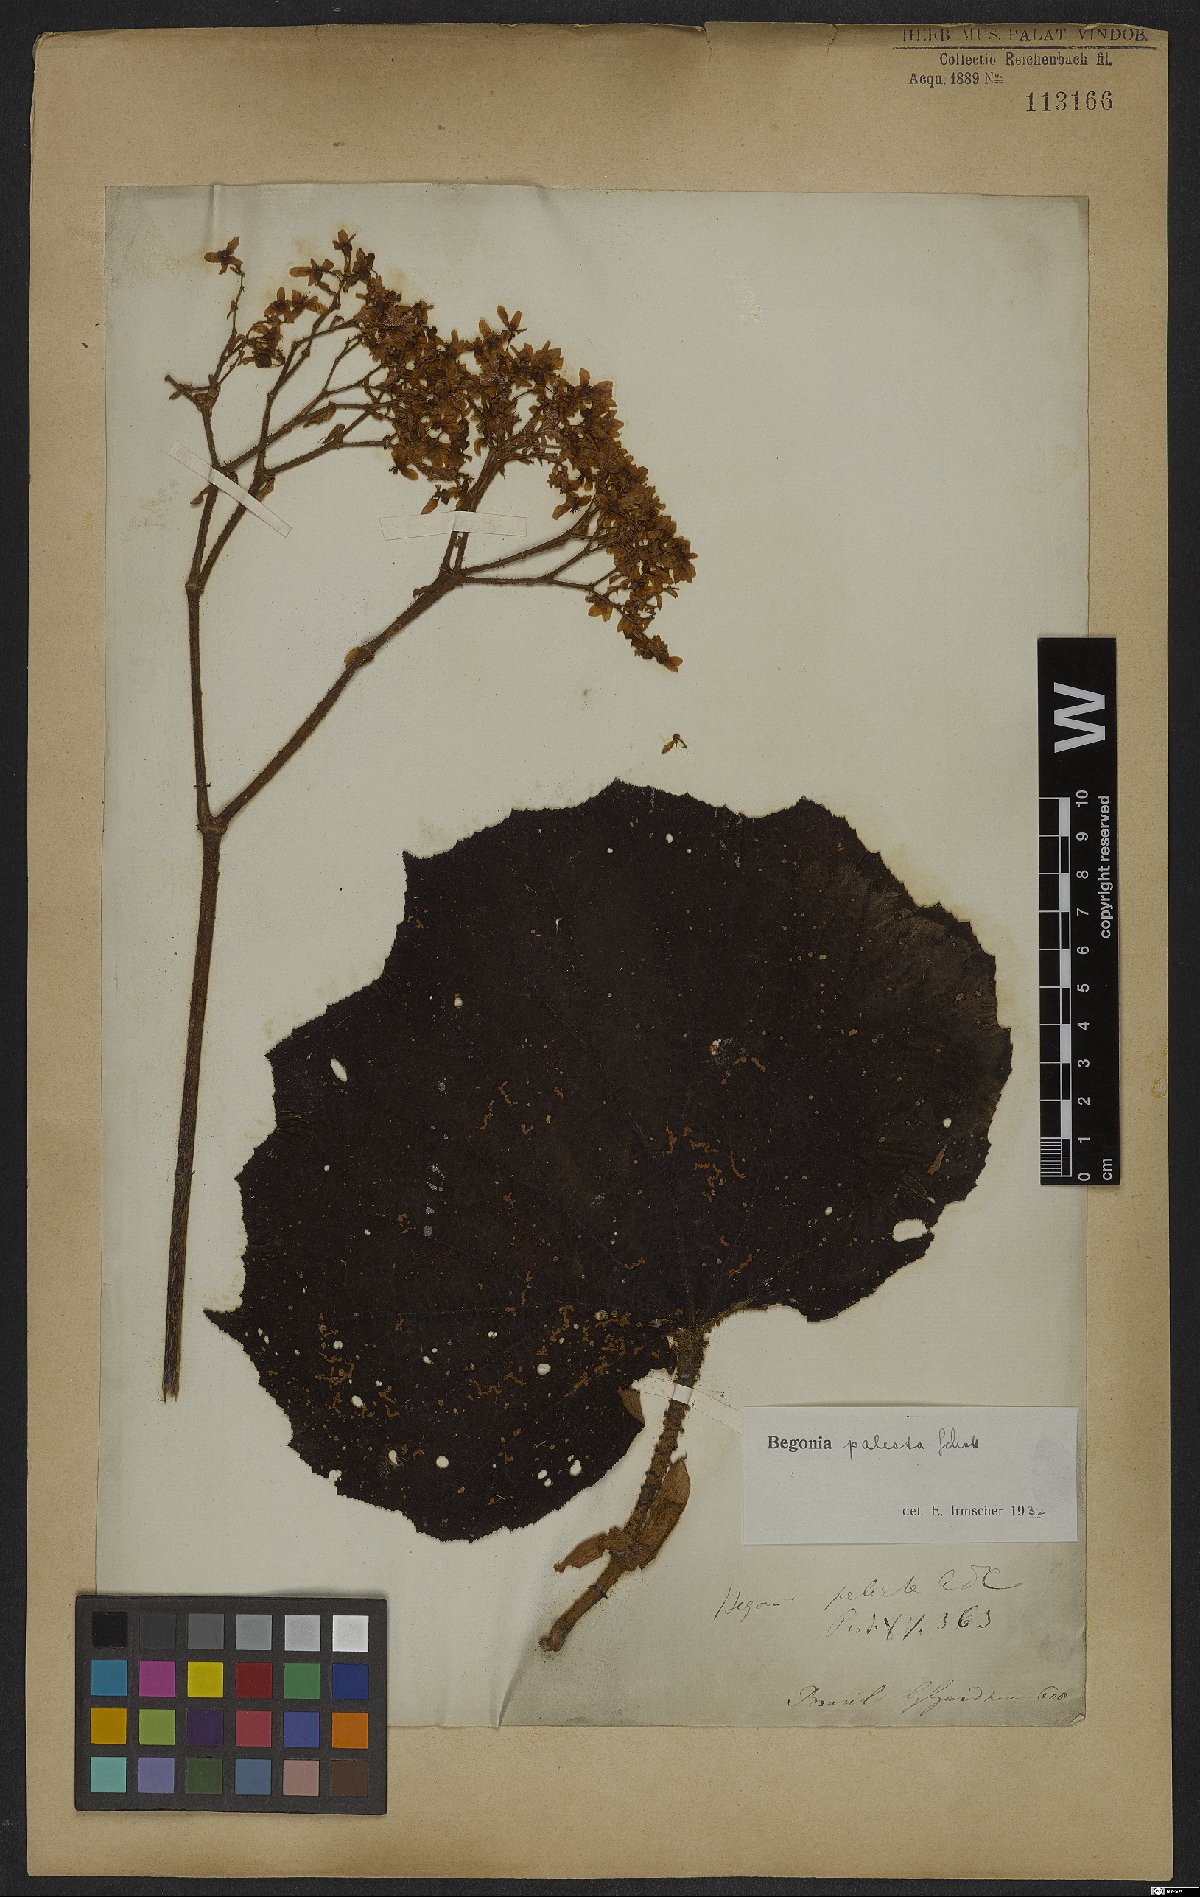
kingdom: Plantae
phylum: Tracheophyta
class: Magnoliopsida
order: Cucurbitales
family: Begoniaceae
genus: Begonia
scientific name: Begonia paleata
